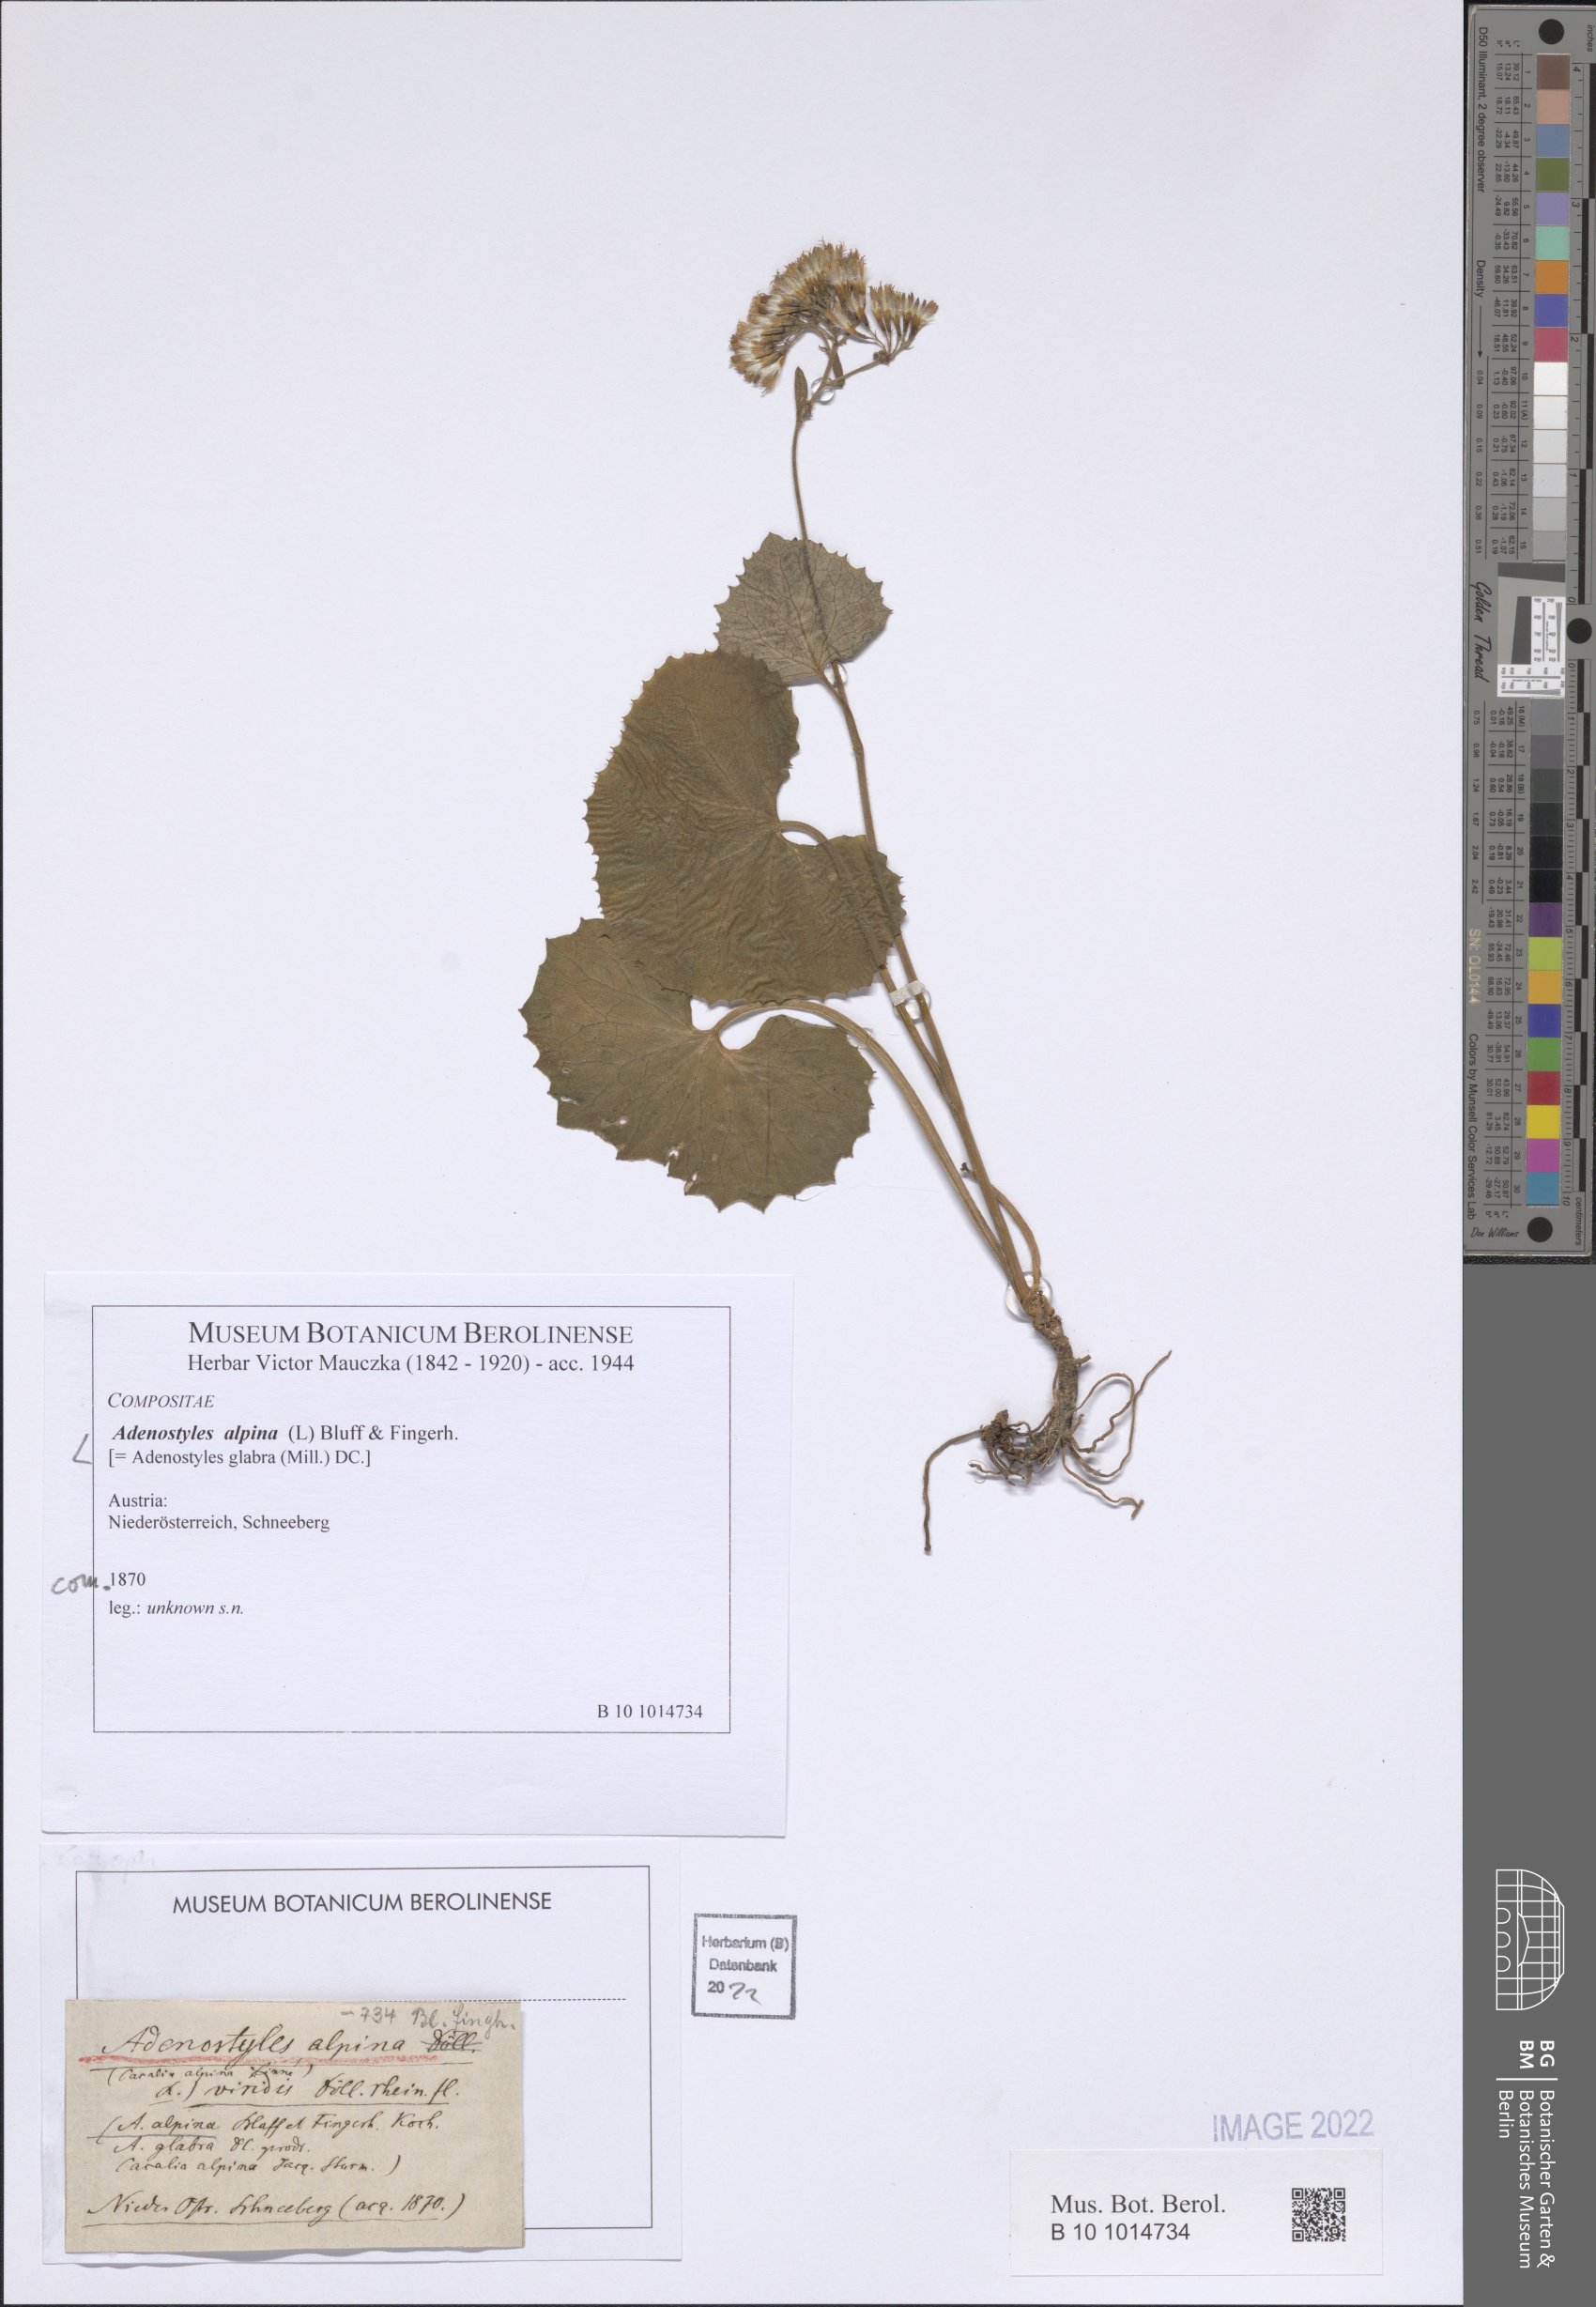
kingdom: Plantae
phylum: Tracheophyta
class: Magnoliopsida
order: Asterales
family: Asteraceae
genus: Adenostyles
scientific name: Adenostyles alpina
